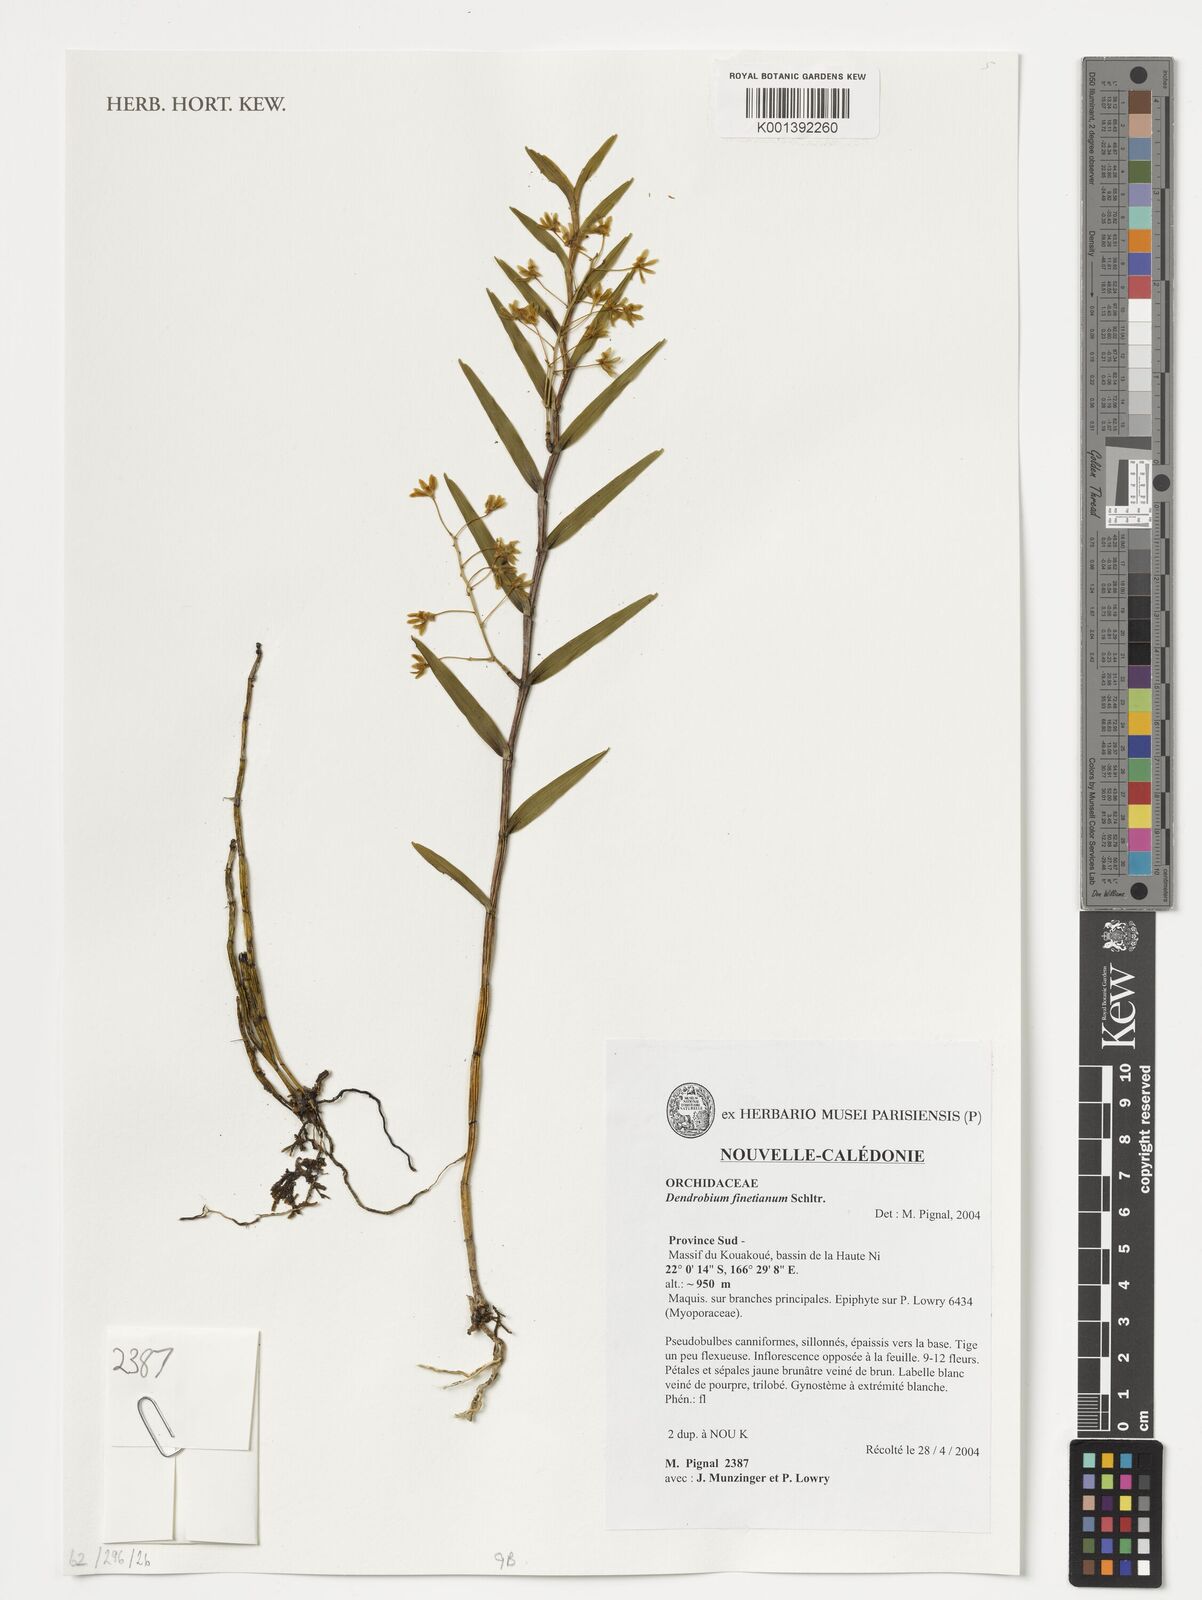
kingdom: Plantae
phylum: Tracheophyta
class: Liliopsida
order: Asparagales
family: Orchidaceae
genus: Dendrobium
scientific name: Dendrobium finetianum
